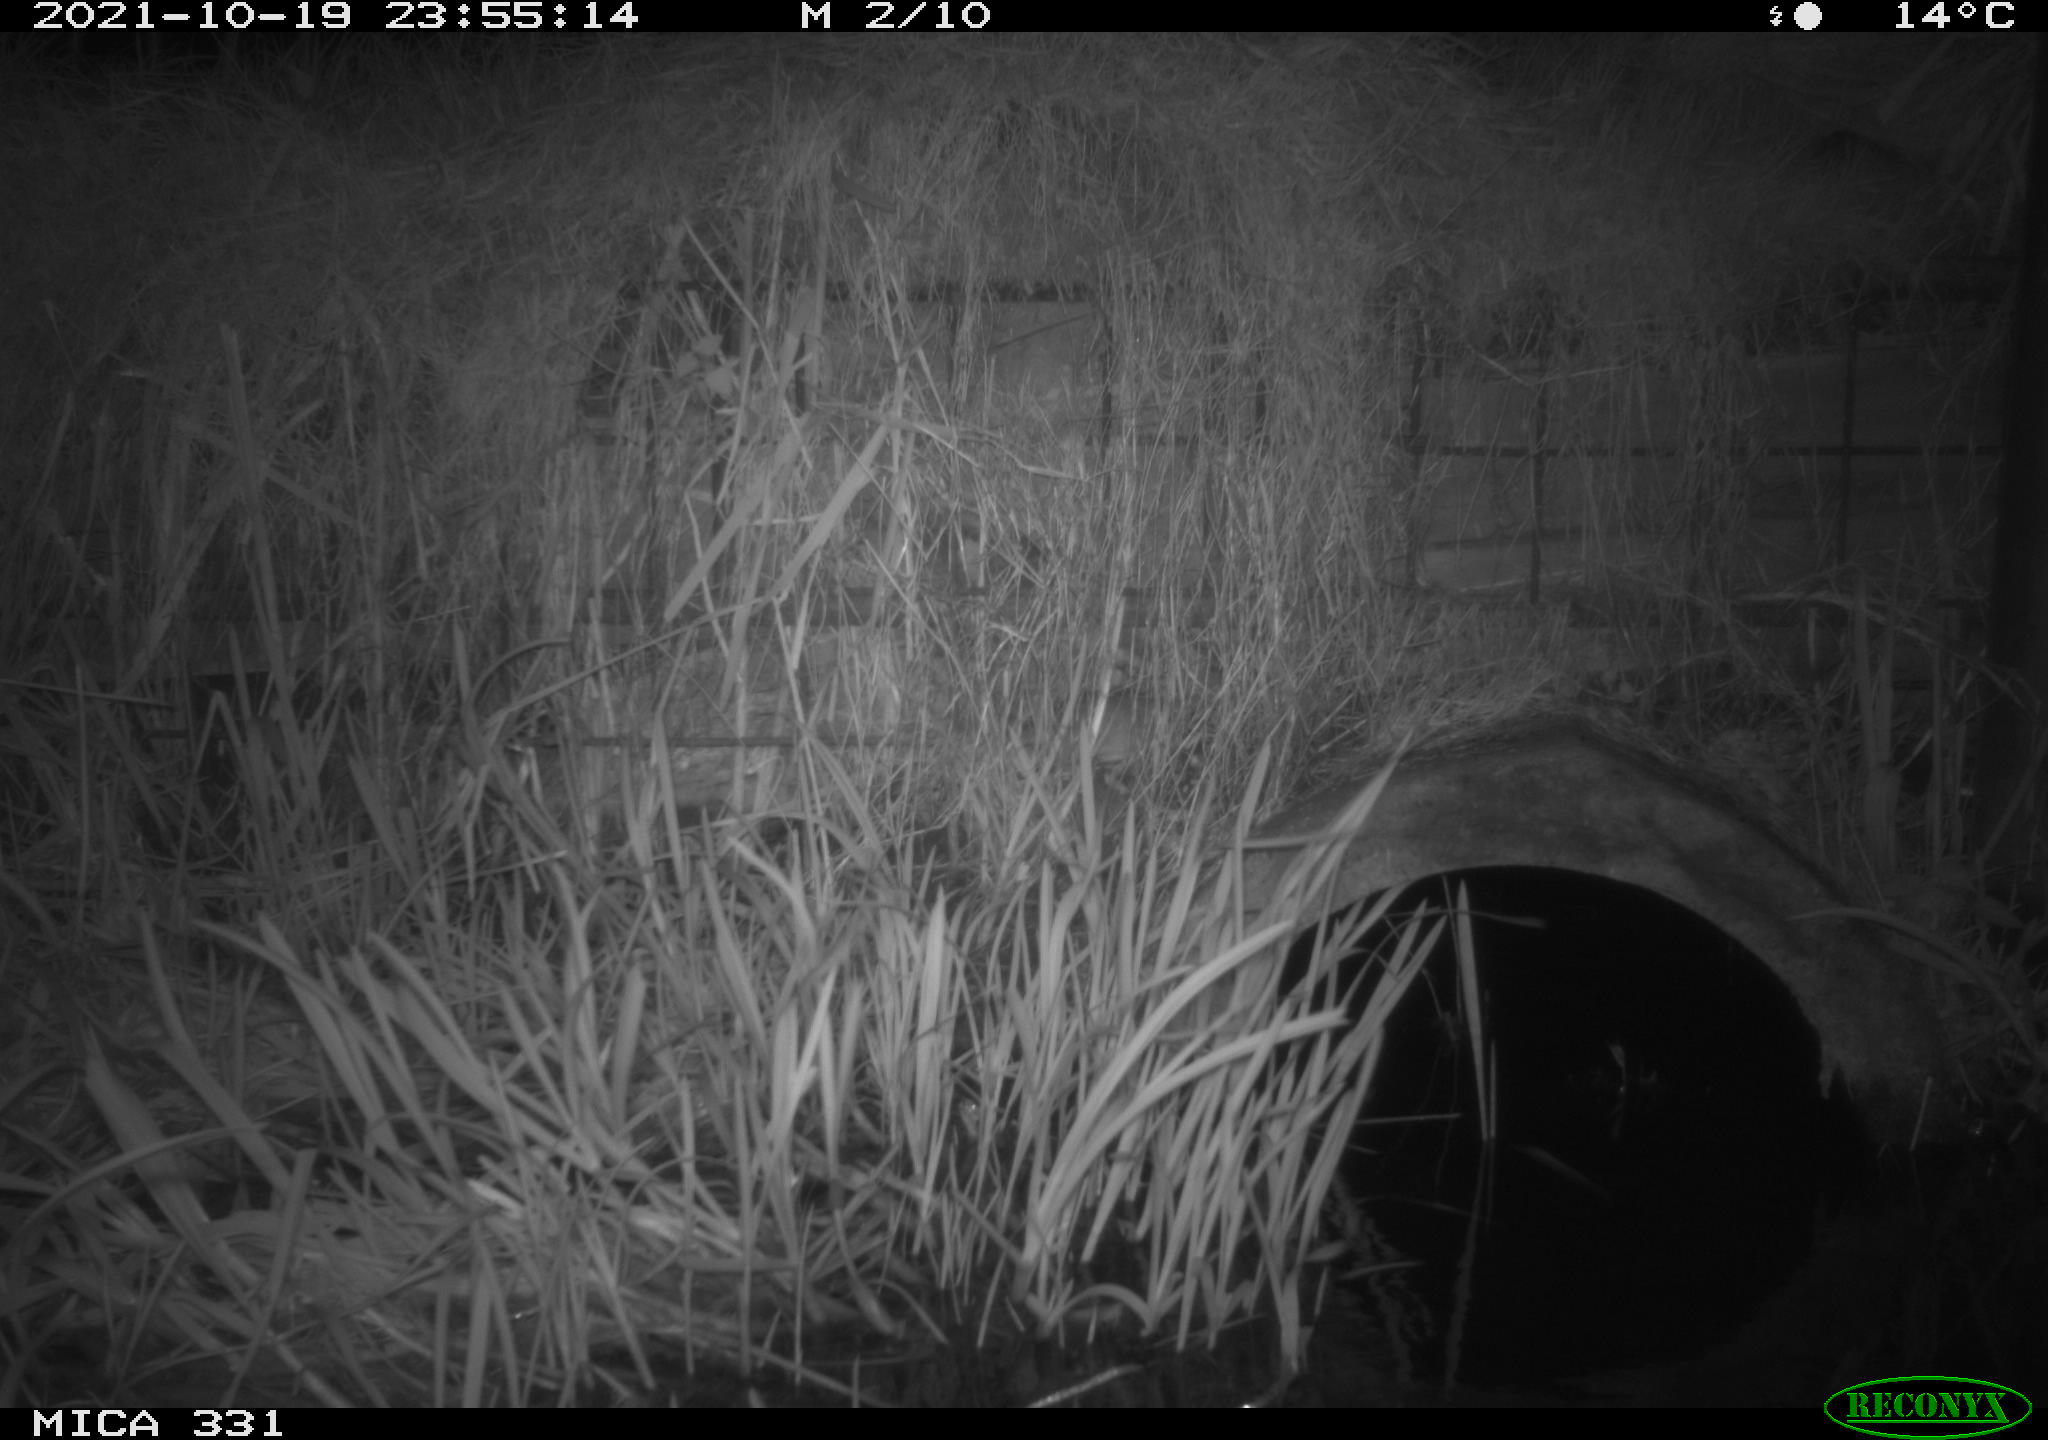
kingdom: Animalia
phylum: Chordata
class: Mammalia
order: Rodentia
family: Muridae
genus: Rattus
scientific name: Rattus norvegicus
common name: Brown rat
